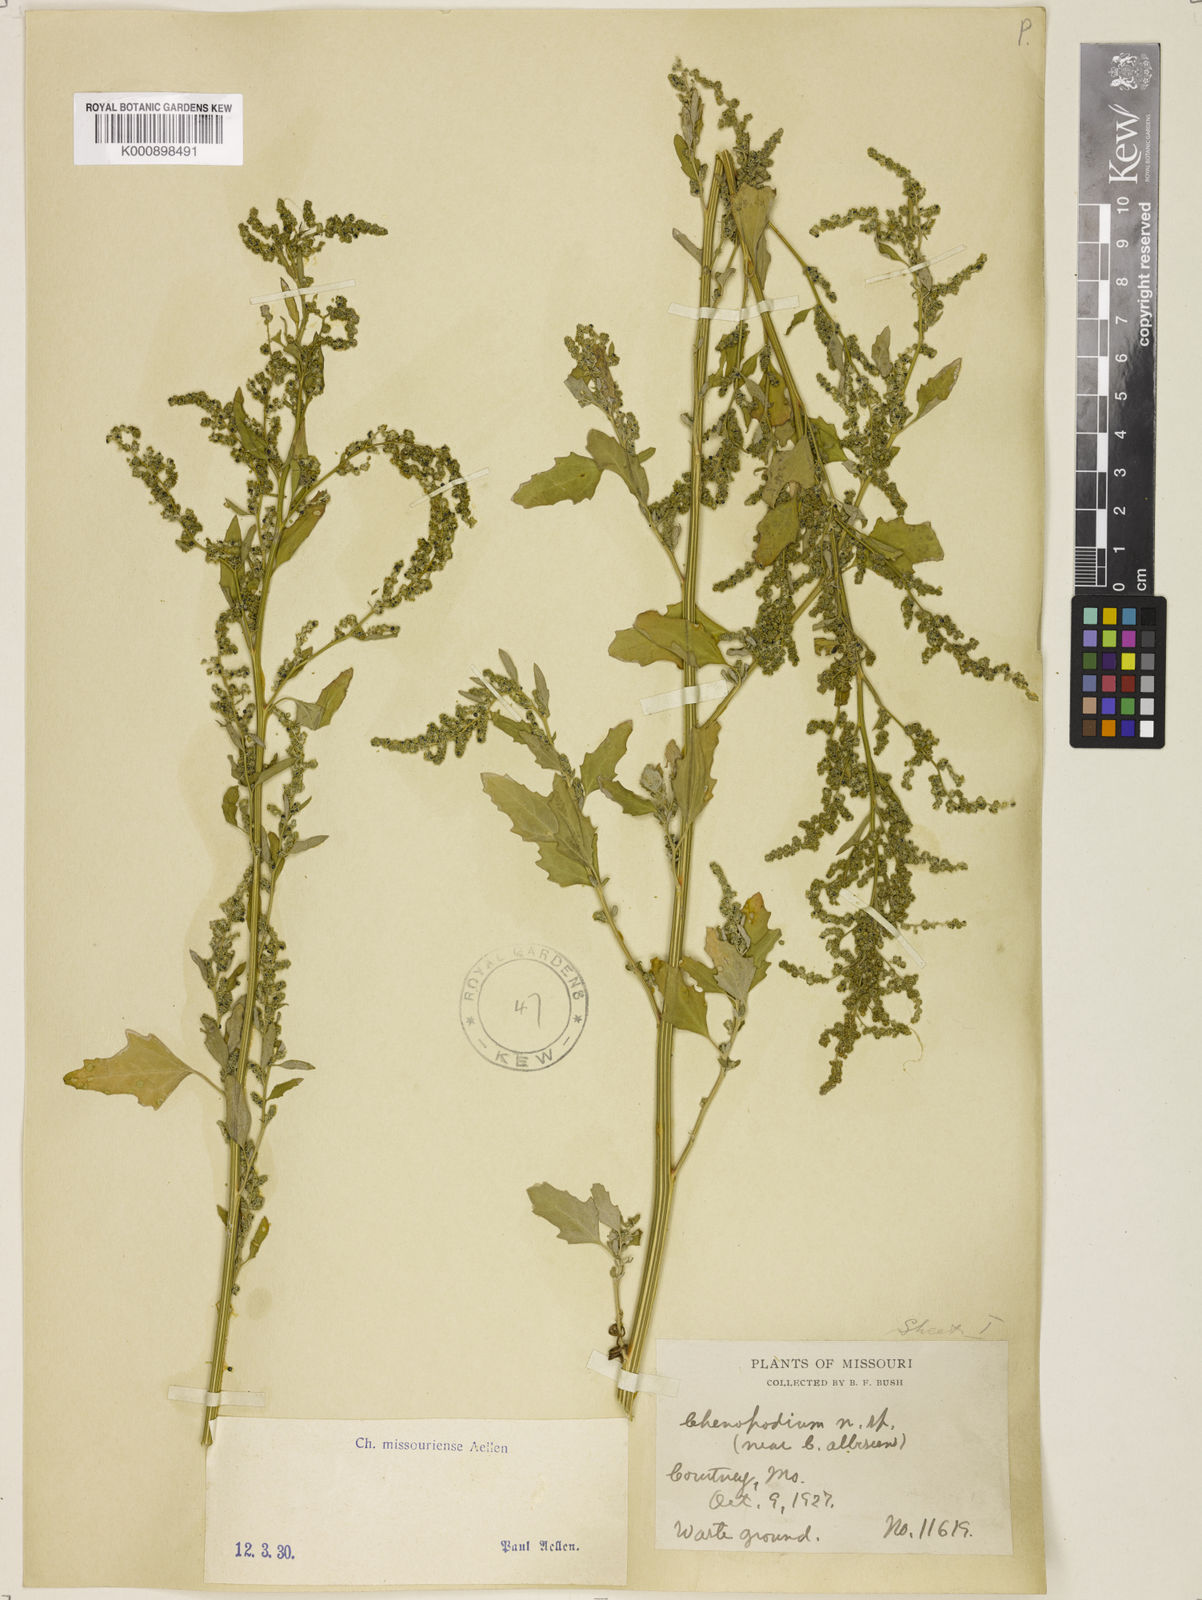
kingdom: Plantae
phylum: Tracheophyta
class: Magnoliopsida
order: Caryophyllales
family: Amaranthaceae
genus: Chenopodium
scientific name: Chenopodium album
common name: Fat-hen
